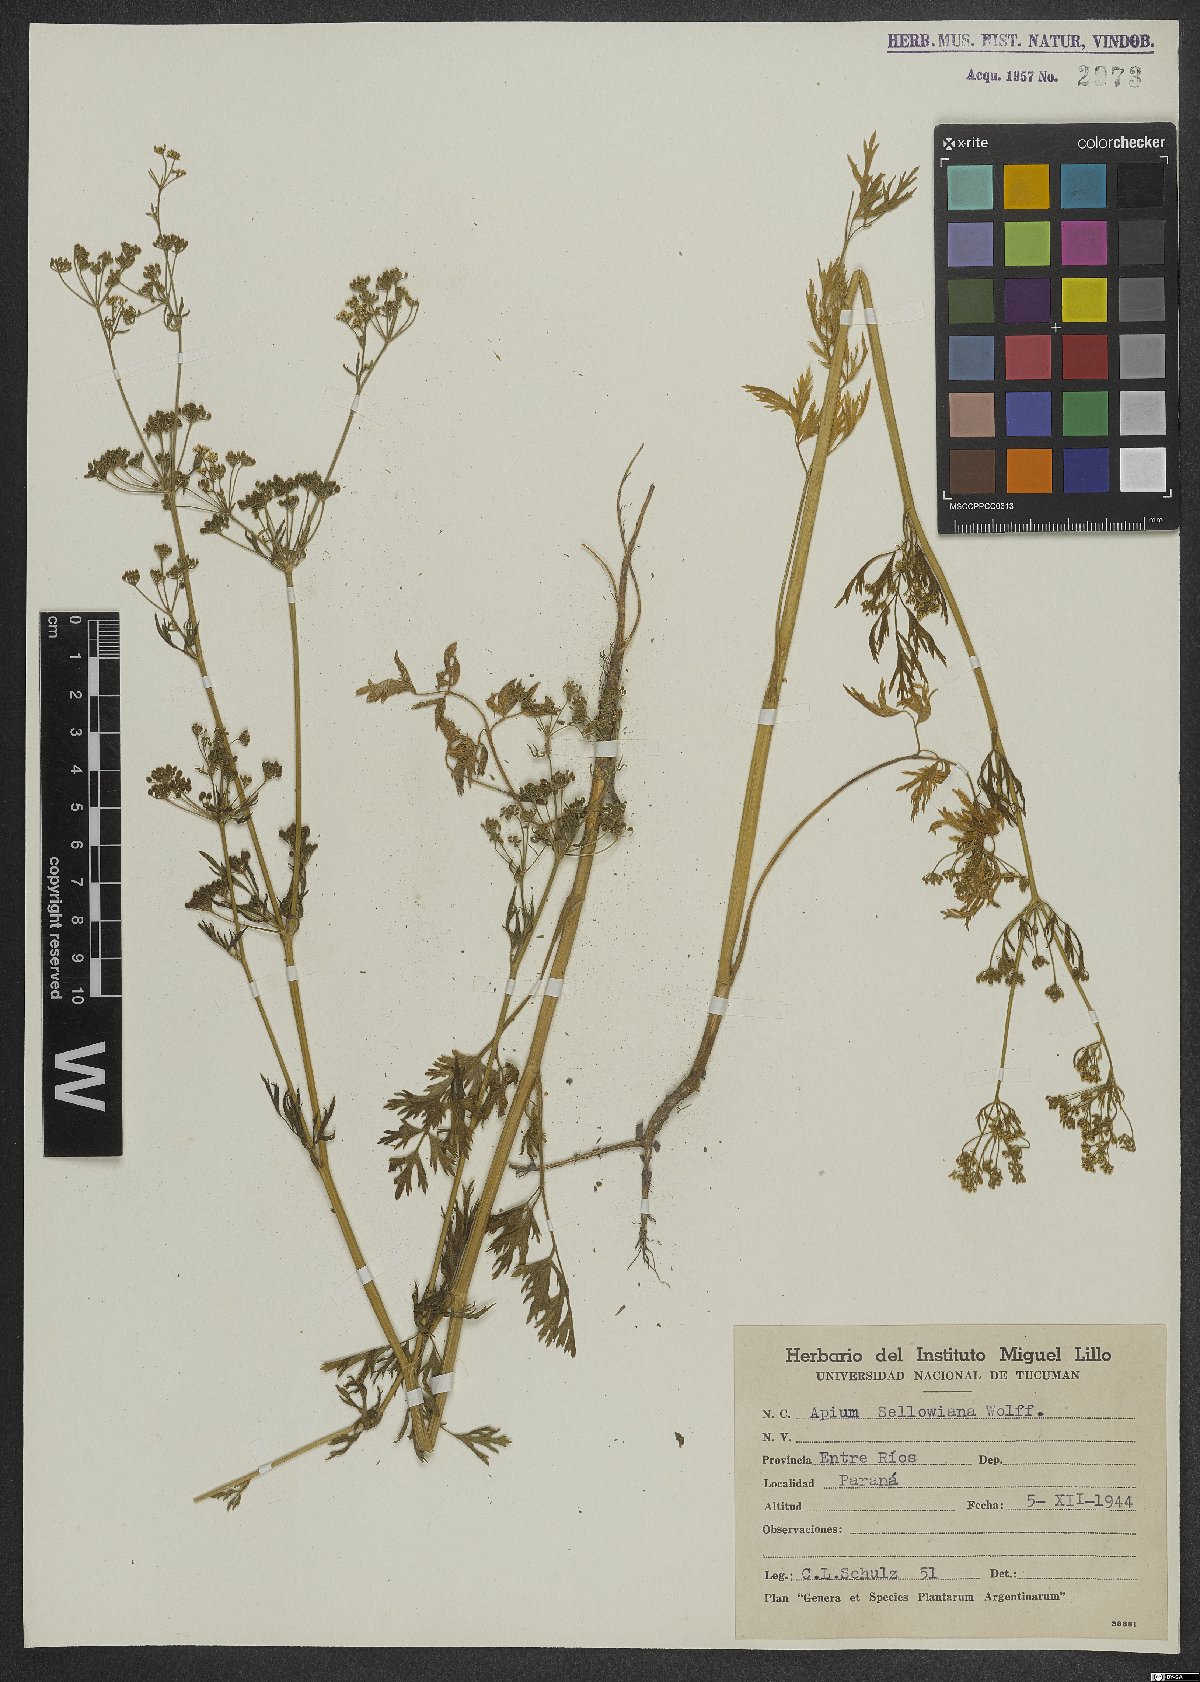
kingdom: Plantae
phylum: Tracheophyta
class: Magnoliopsida
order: Apiales
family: Apiaceae
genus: Apium
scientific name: Apium sellowianum
